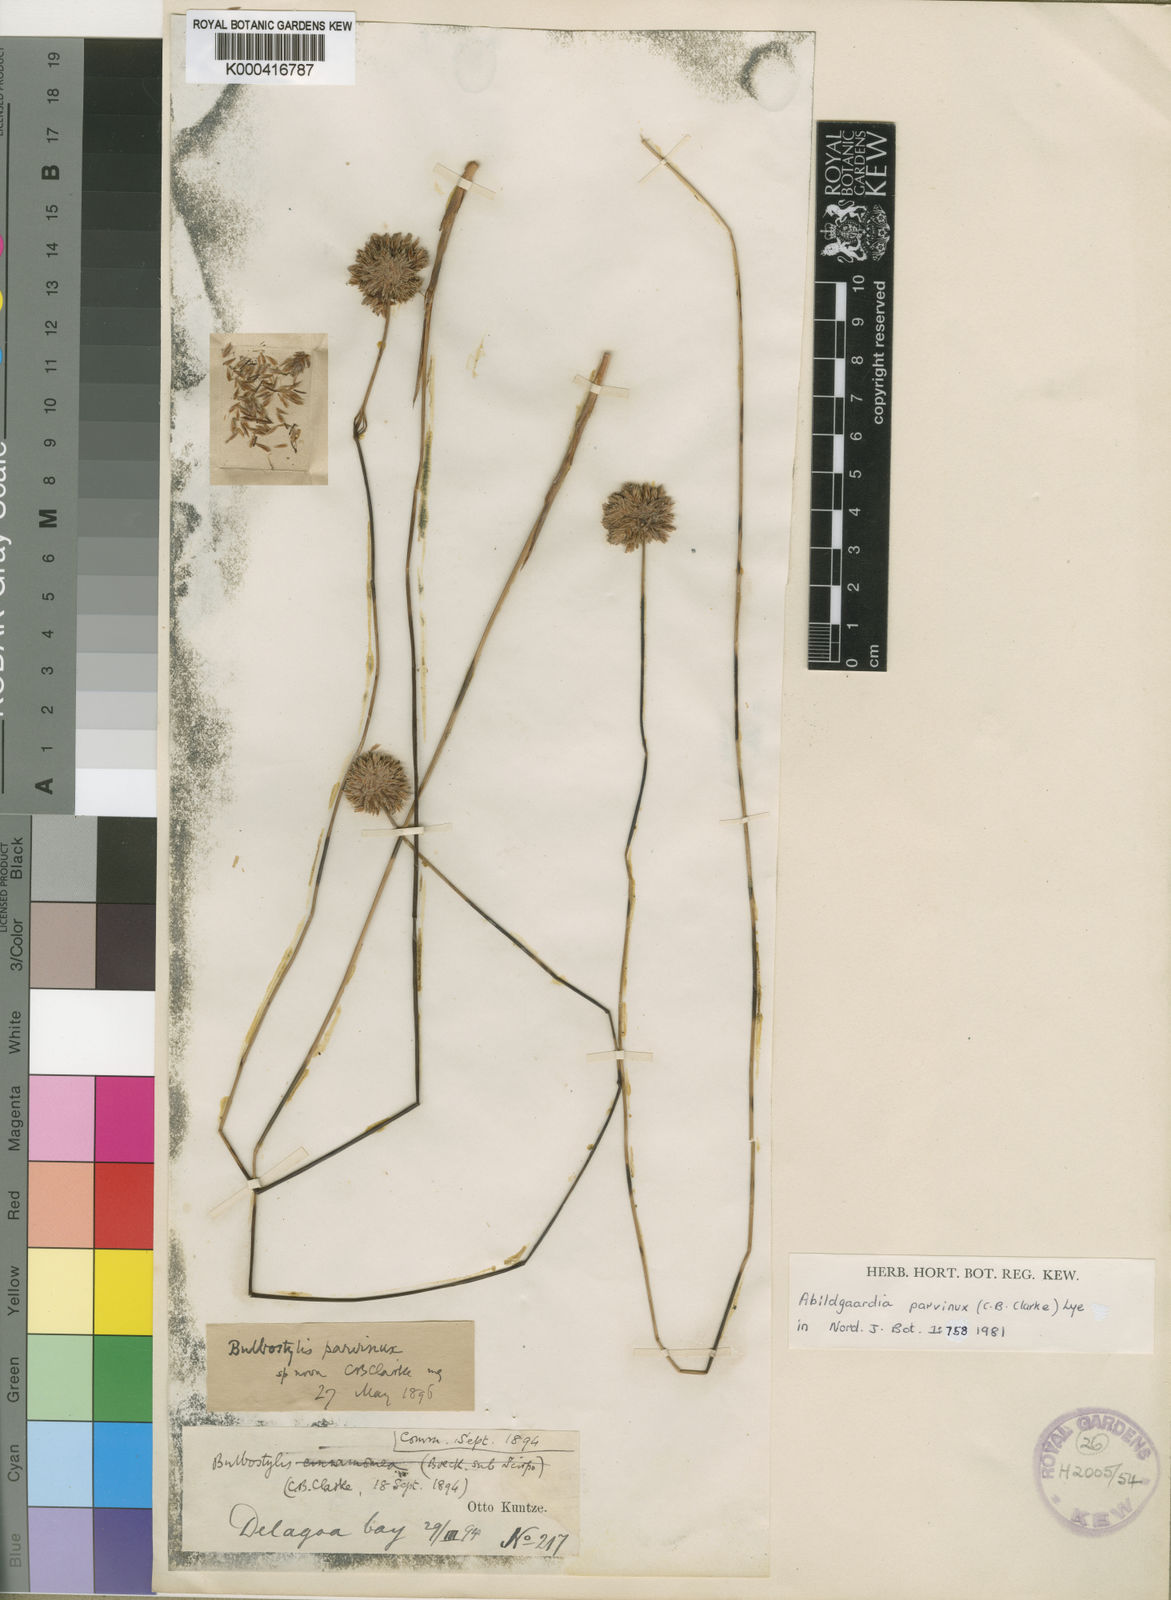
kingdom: Plantae
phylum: Tracheophyta
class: Liliopsida
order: Poales
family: Cyperaceae
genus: Bulbostylis
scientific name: Bulbostylis parvinux
